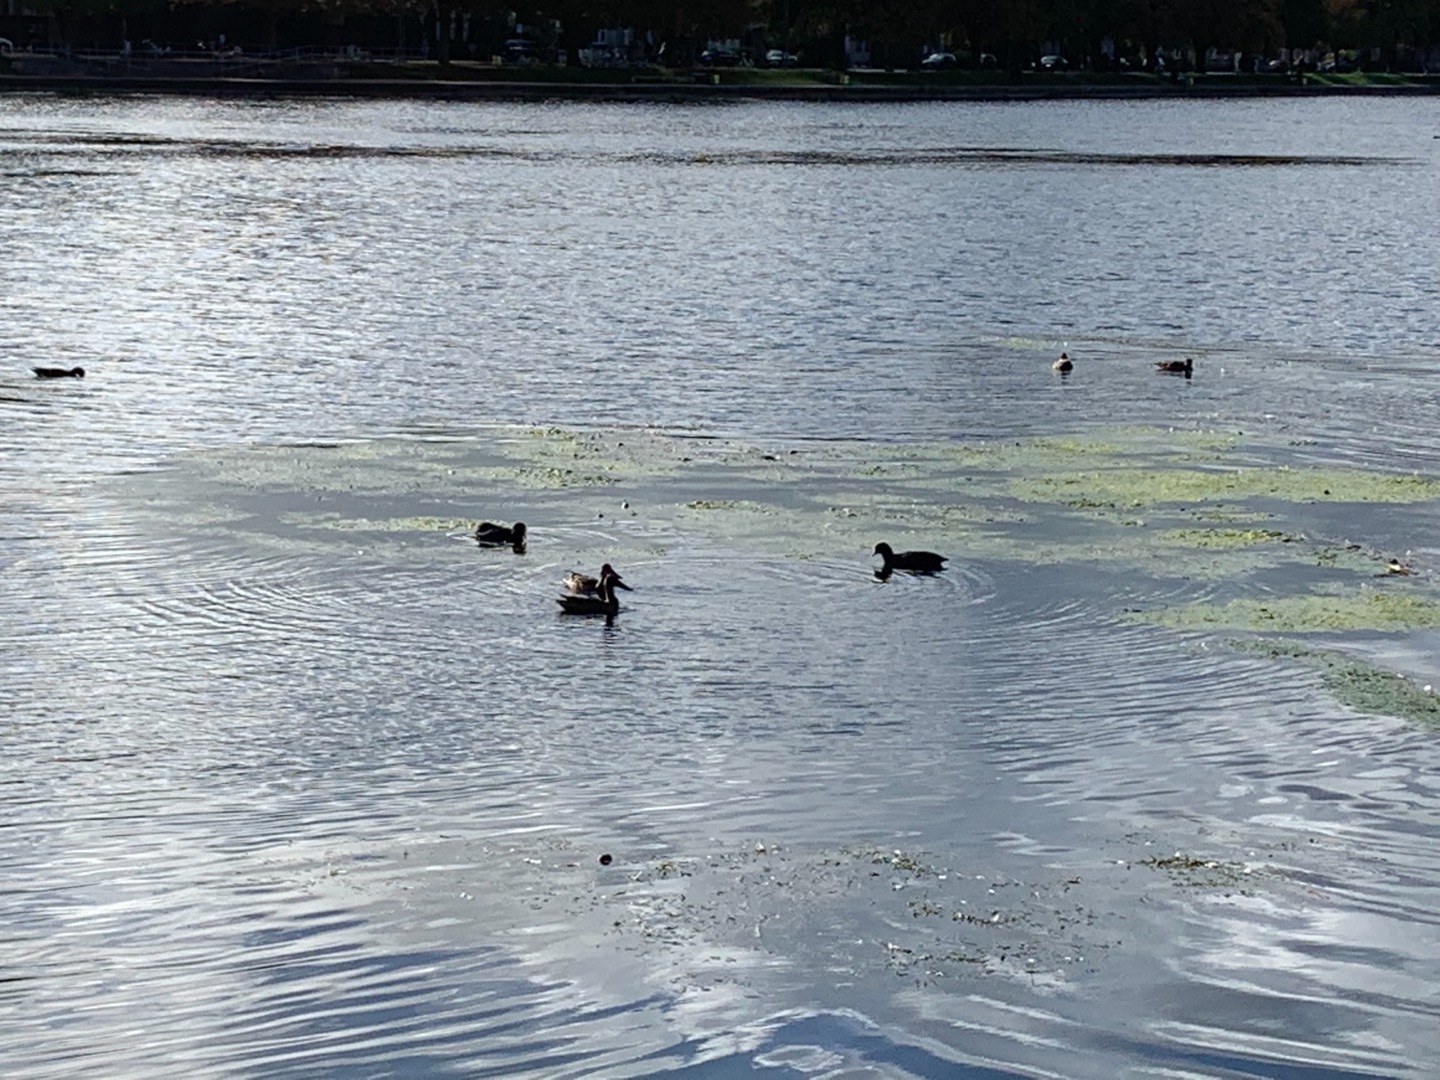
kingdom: Animalia
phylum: Chordata
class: Aves
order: Anseriformes
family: Anatidae
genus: Spatula
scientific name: Spatula clypeata
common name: Skeand
